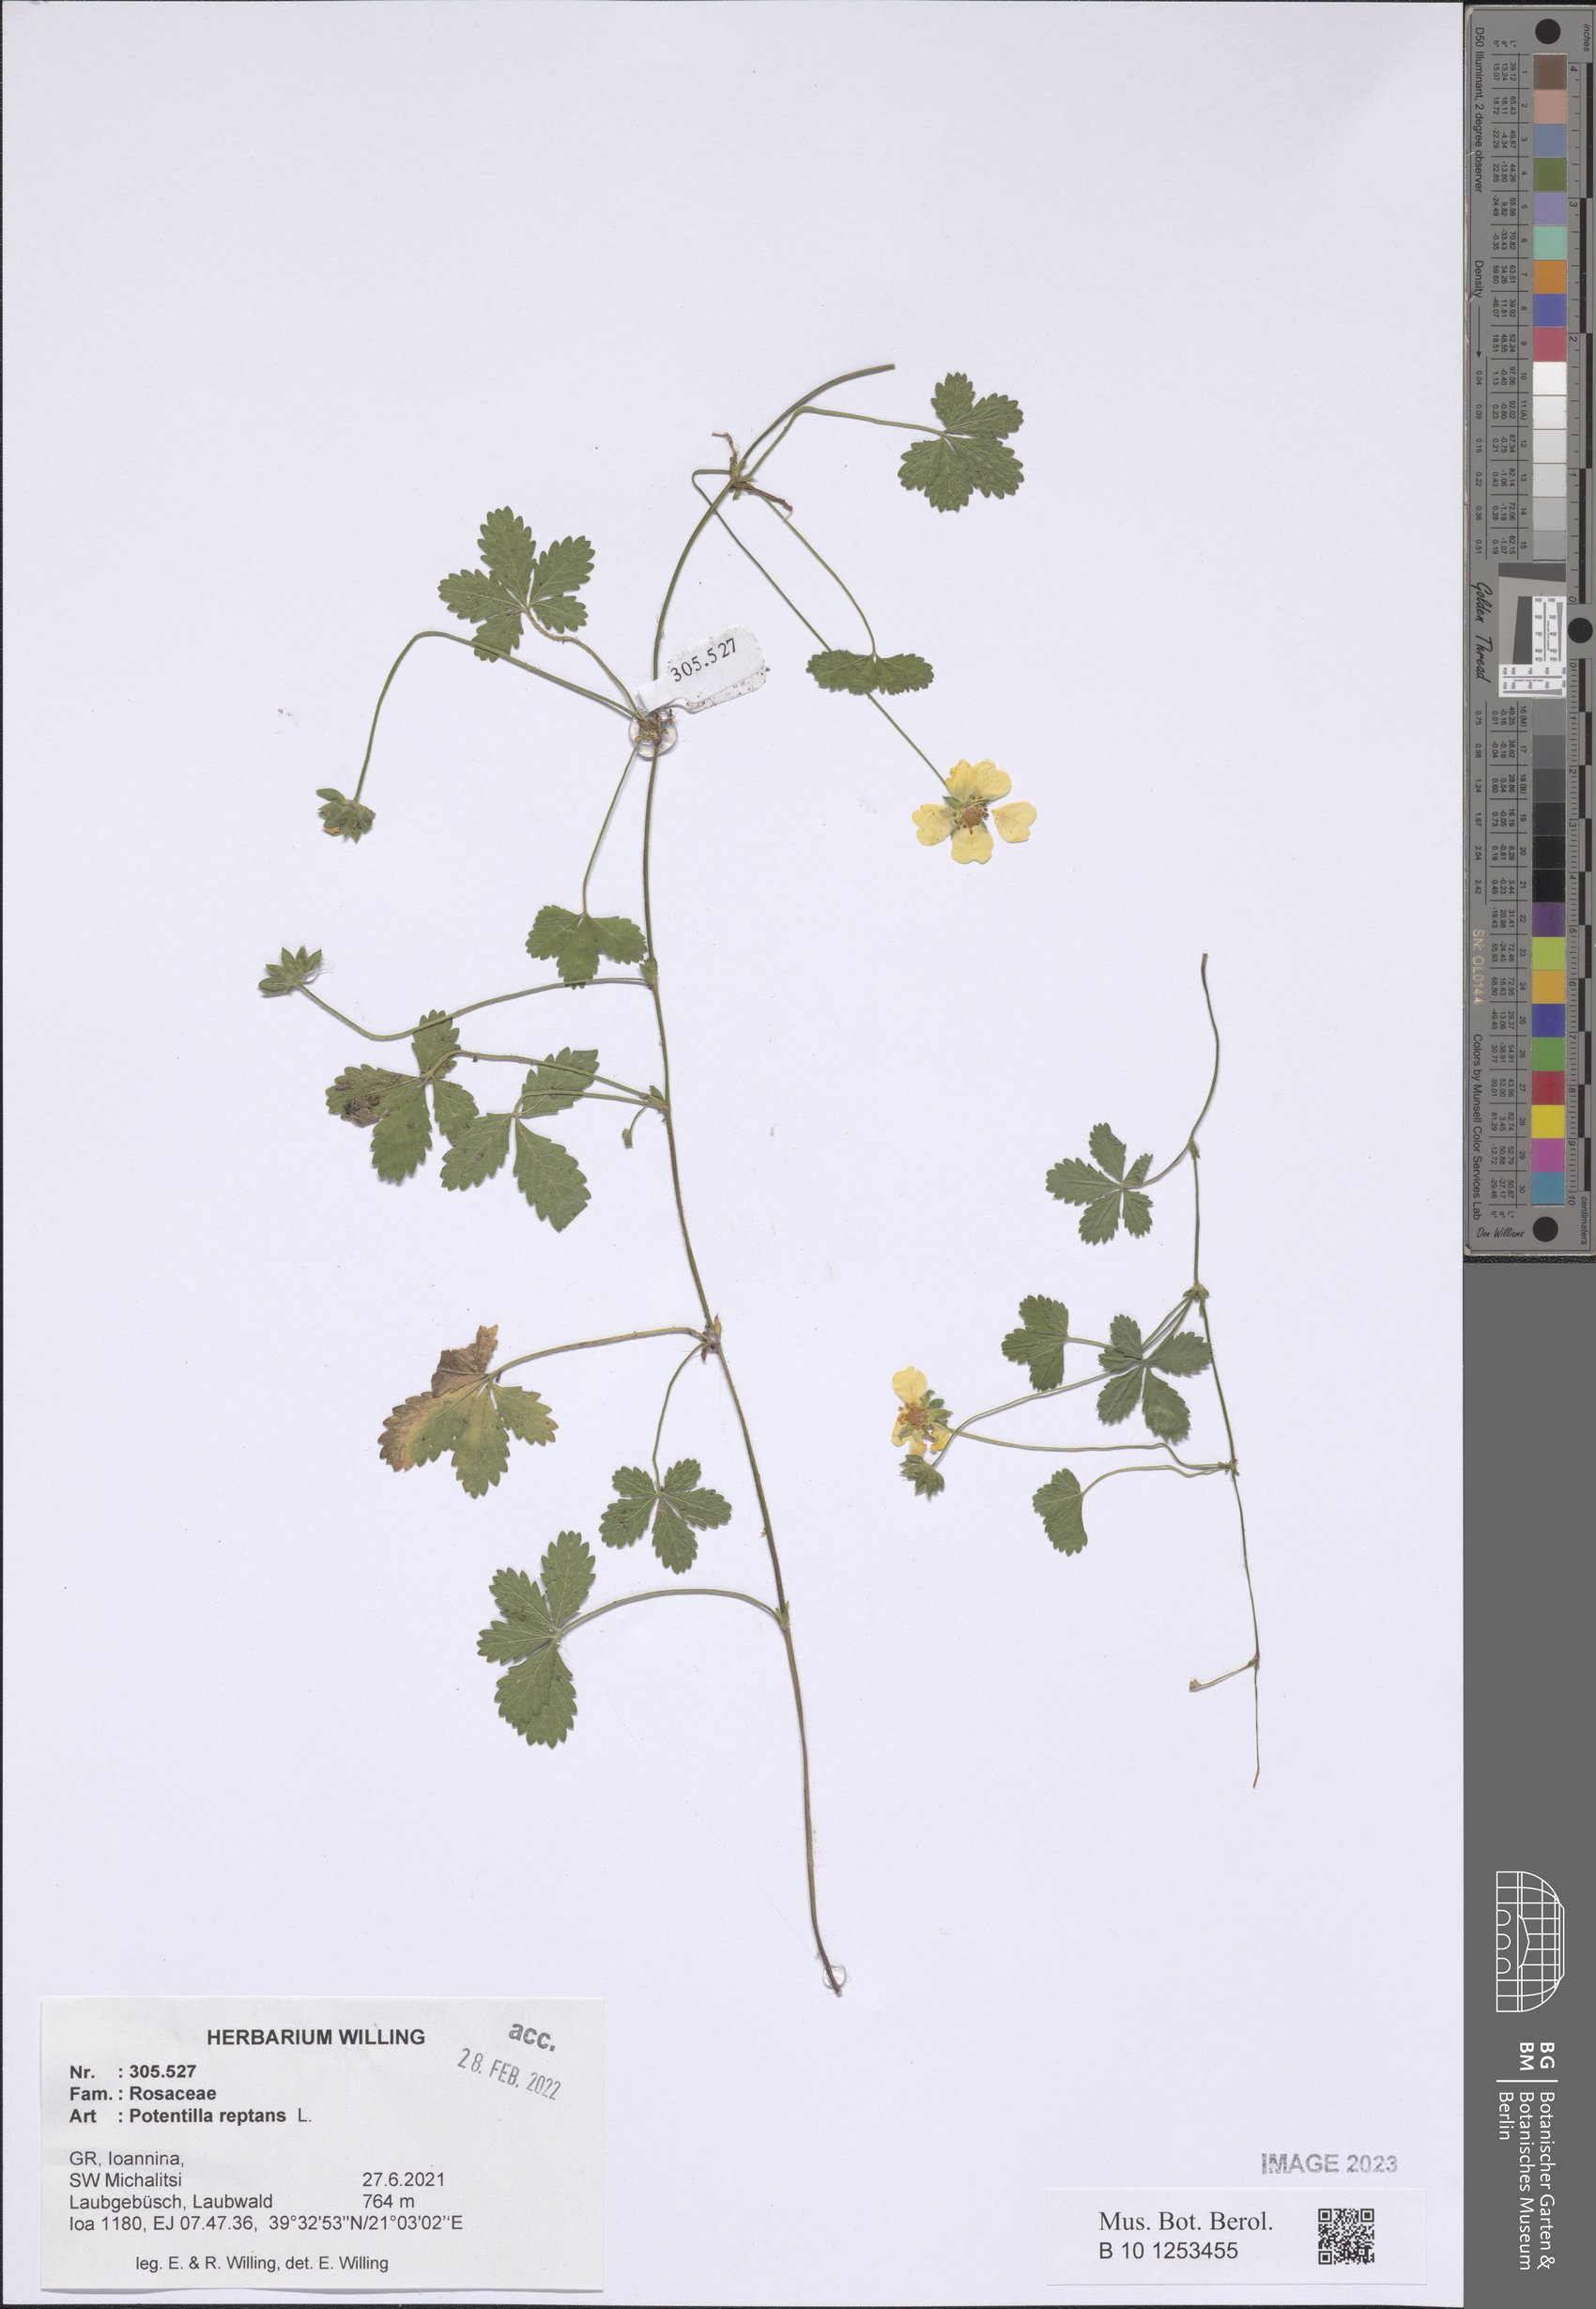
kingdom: Plantae
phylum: Tracheophyta
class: Magnoliopsida
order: Rosales
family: Rosaceae
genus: Potentilla
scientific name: Potentilla reptans
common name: Creeping cinquefoil
